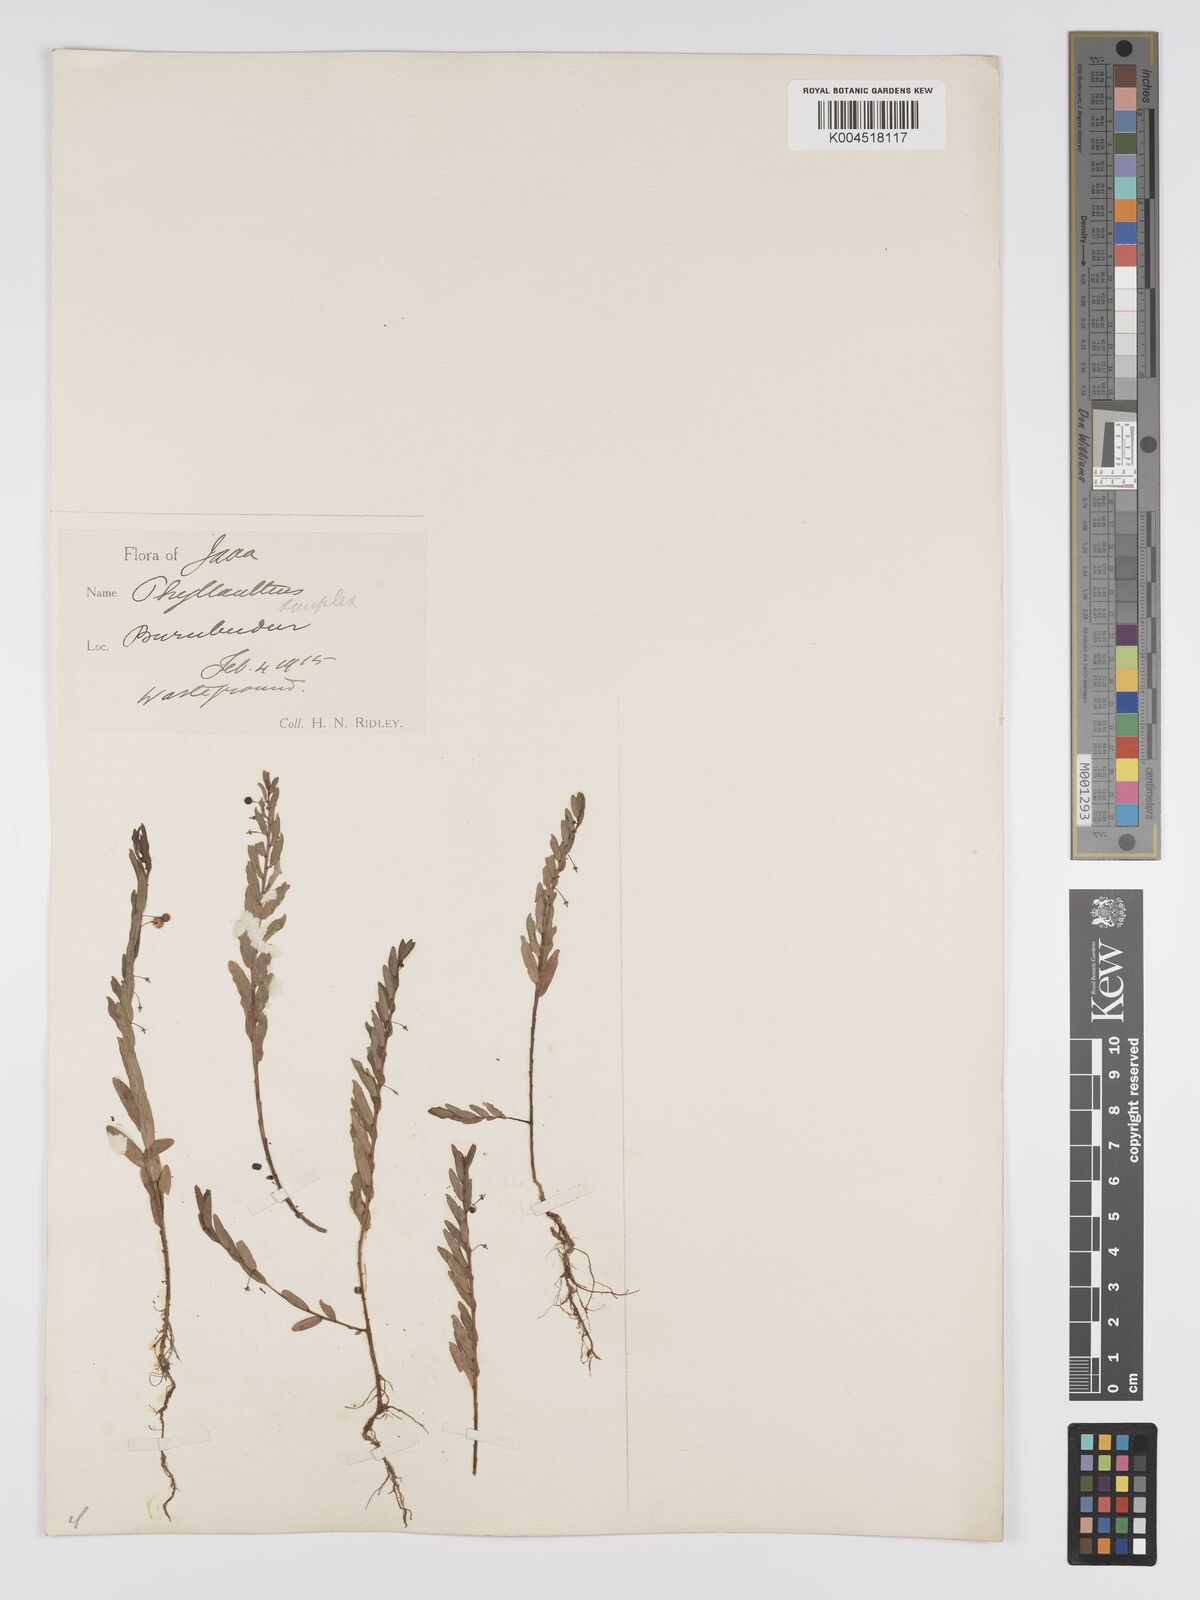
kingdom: Plantae
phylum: Tracheophyta
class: Magnoliopsida
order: Malpighiales
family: Phyllanthaceae
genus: Phyllanthus
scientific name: Phyllanthus virgatus
